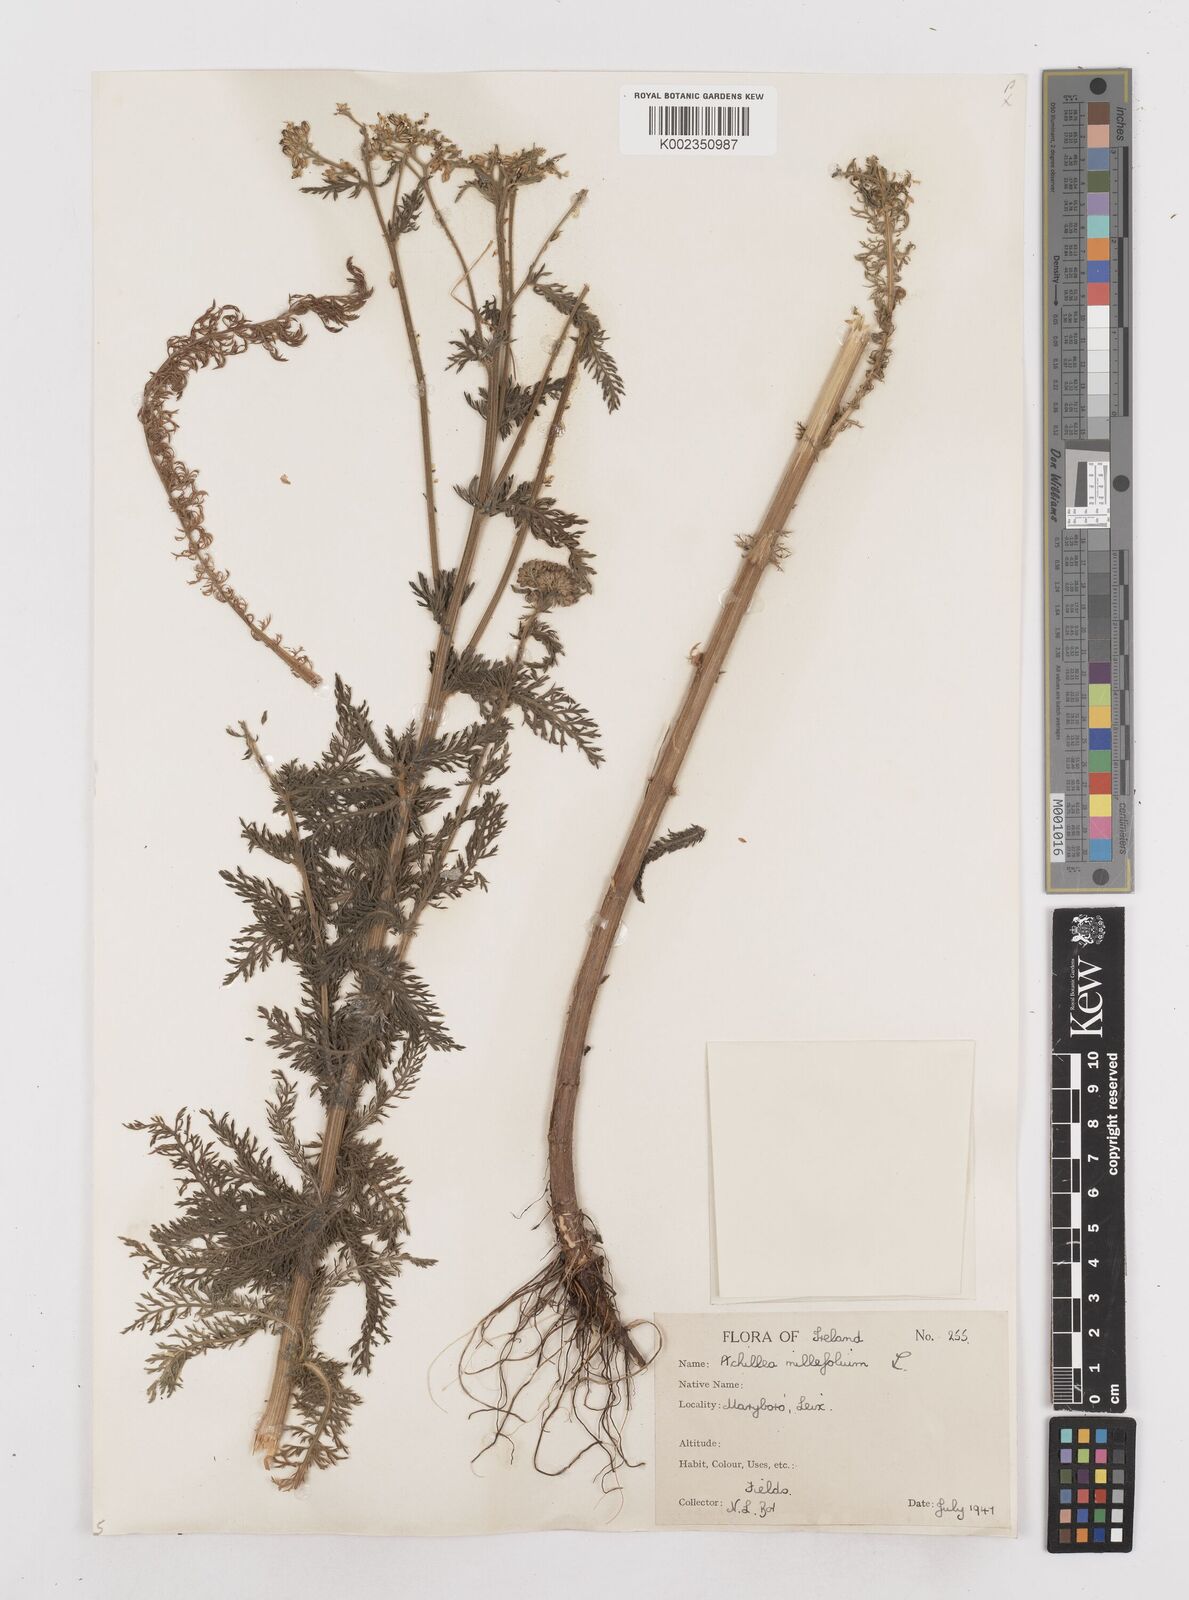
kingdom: Plantae
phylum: Tracheophyta
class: Magnoliopsida
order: Asterales
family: Asteraceae
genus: Achillea
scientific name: Achillea millefolium
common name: Yarrow
